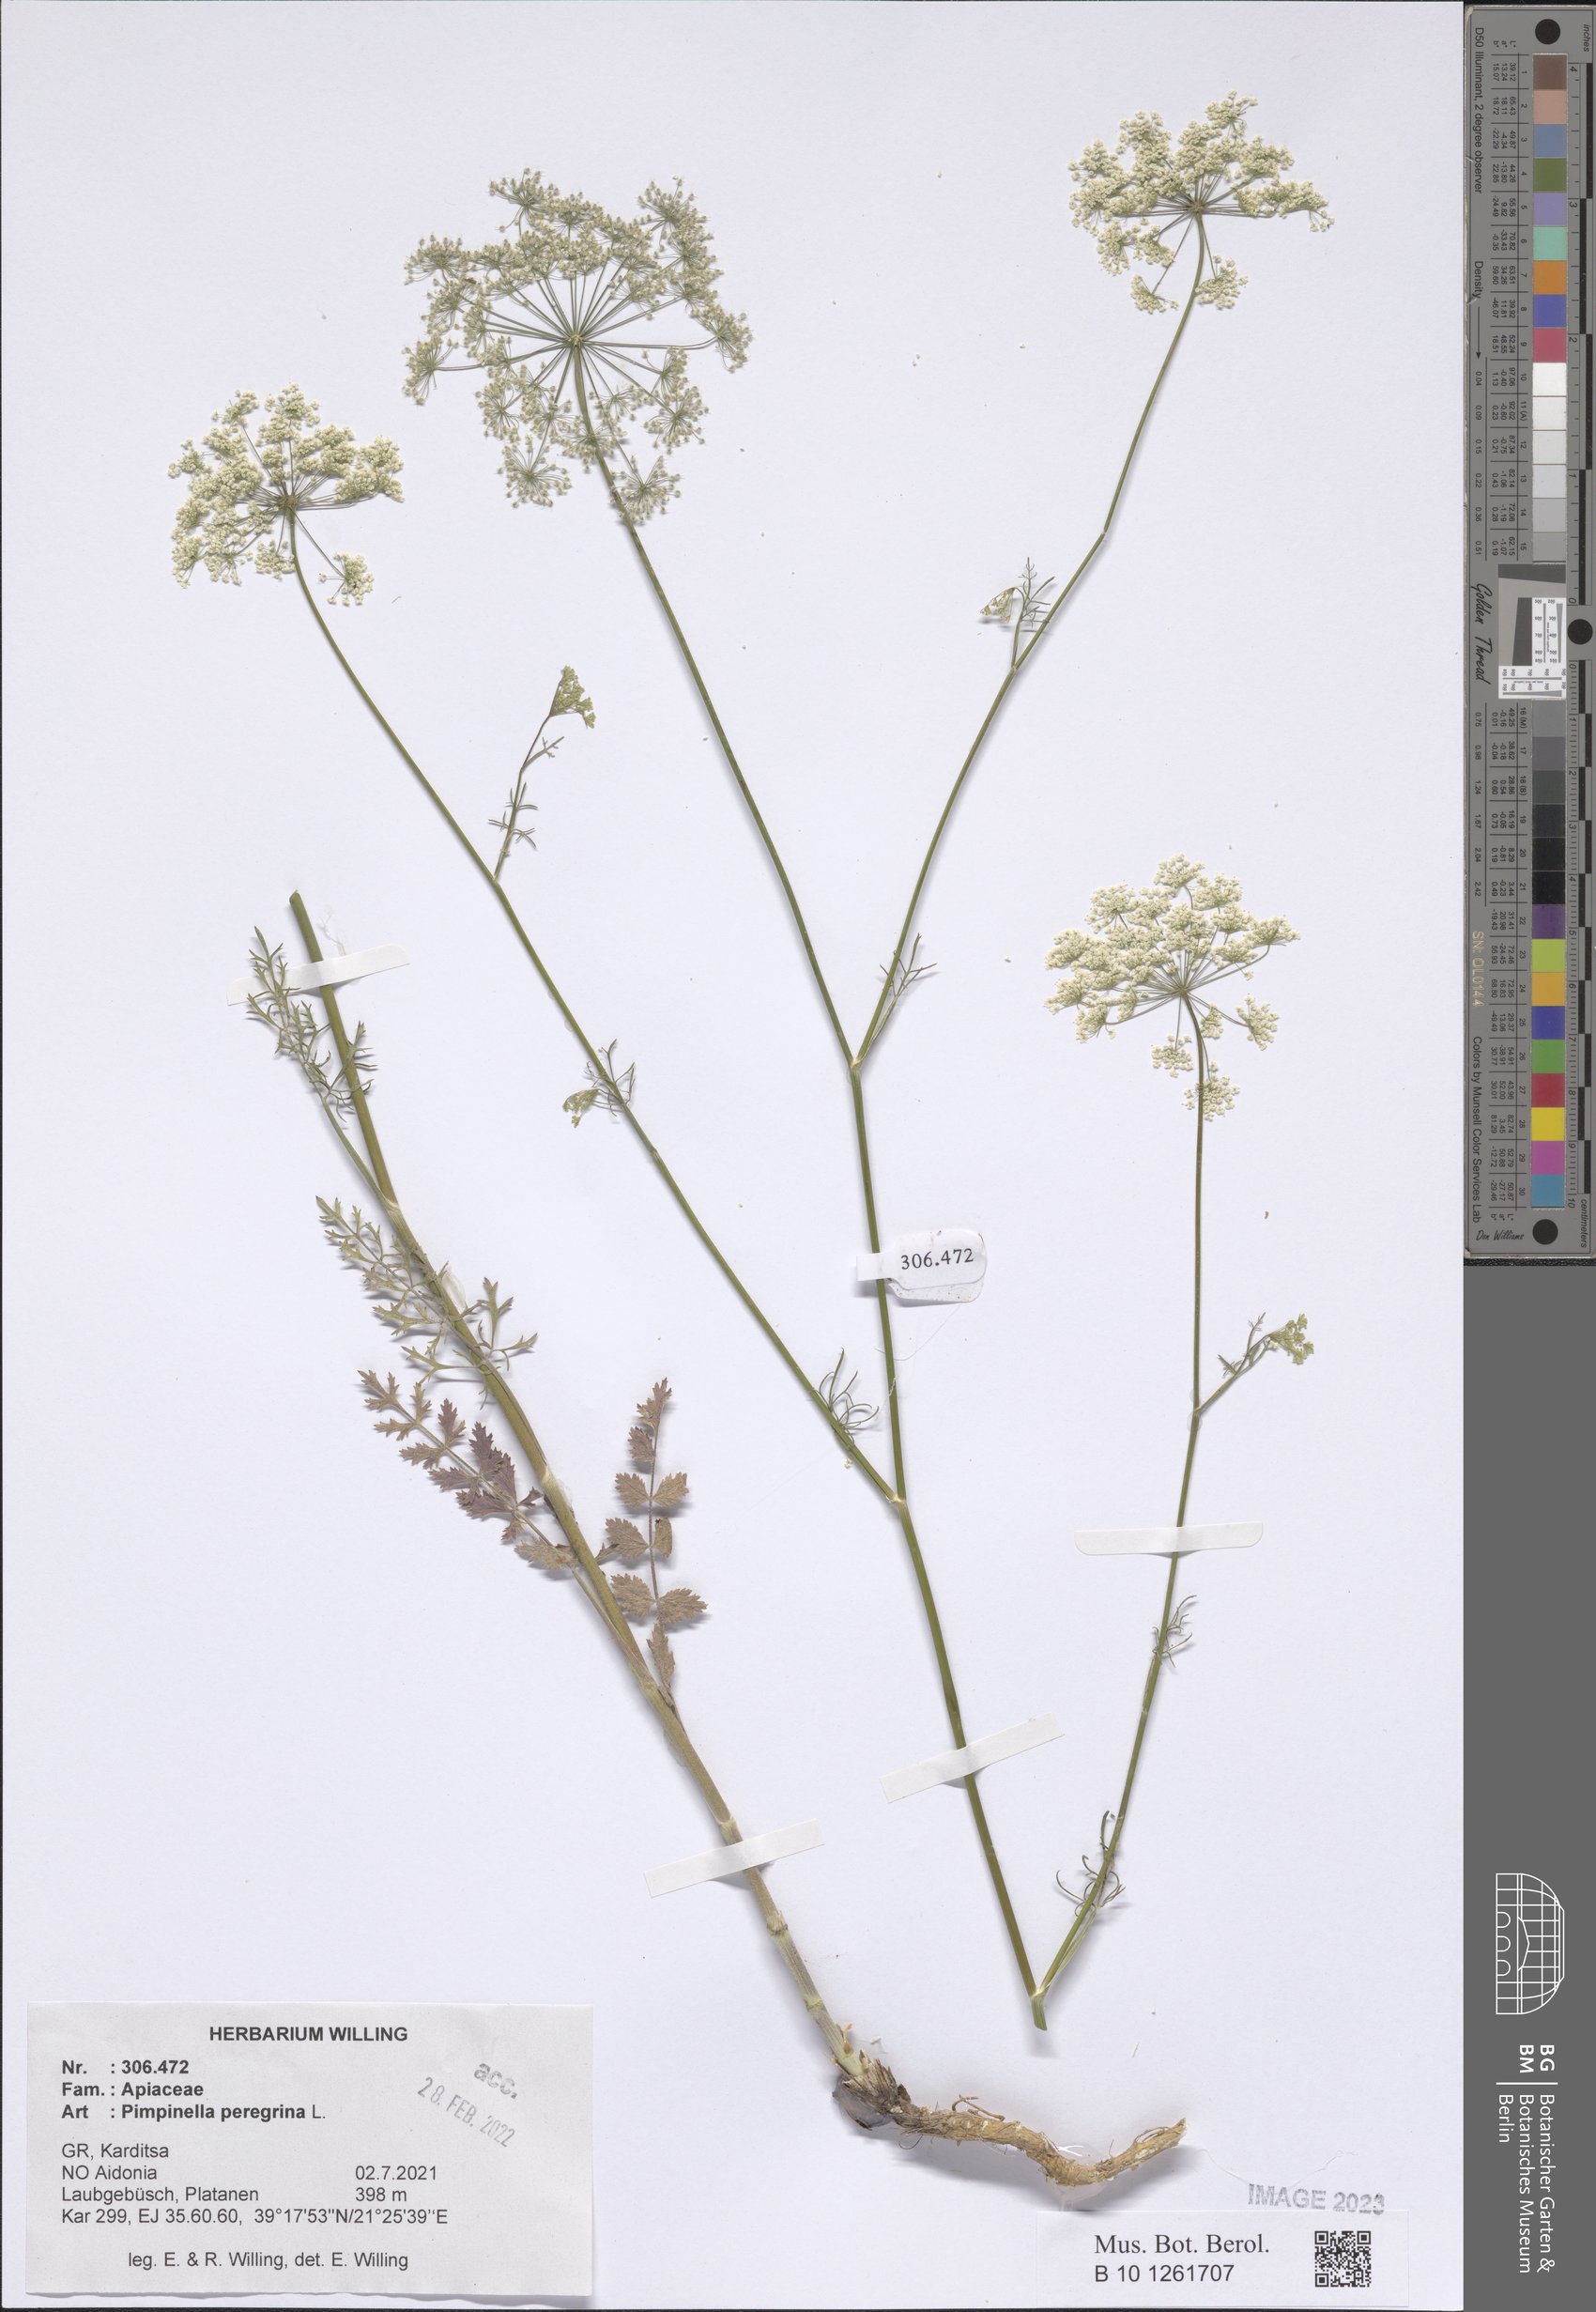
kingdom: Plantae
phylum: Tracheophyta
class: Magnoliopsida
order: Apiales
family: Apiaceae
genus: Pimpinella
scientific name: Pimpinella peregrina
